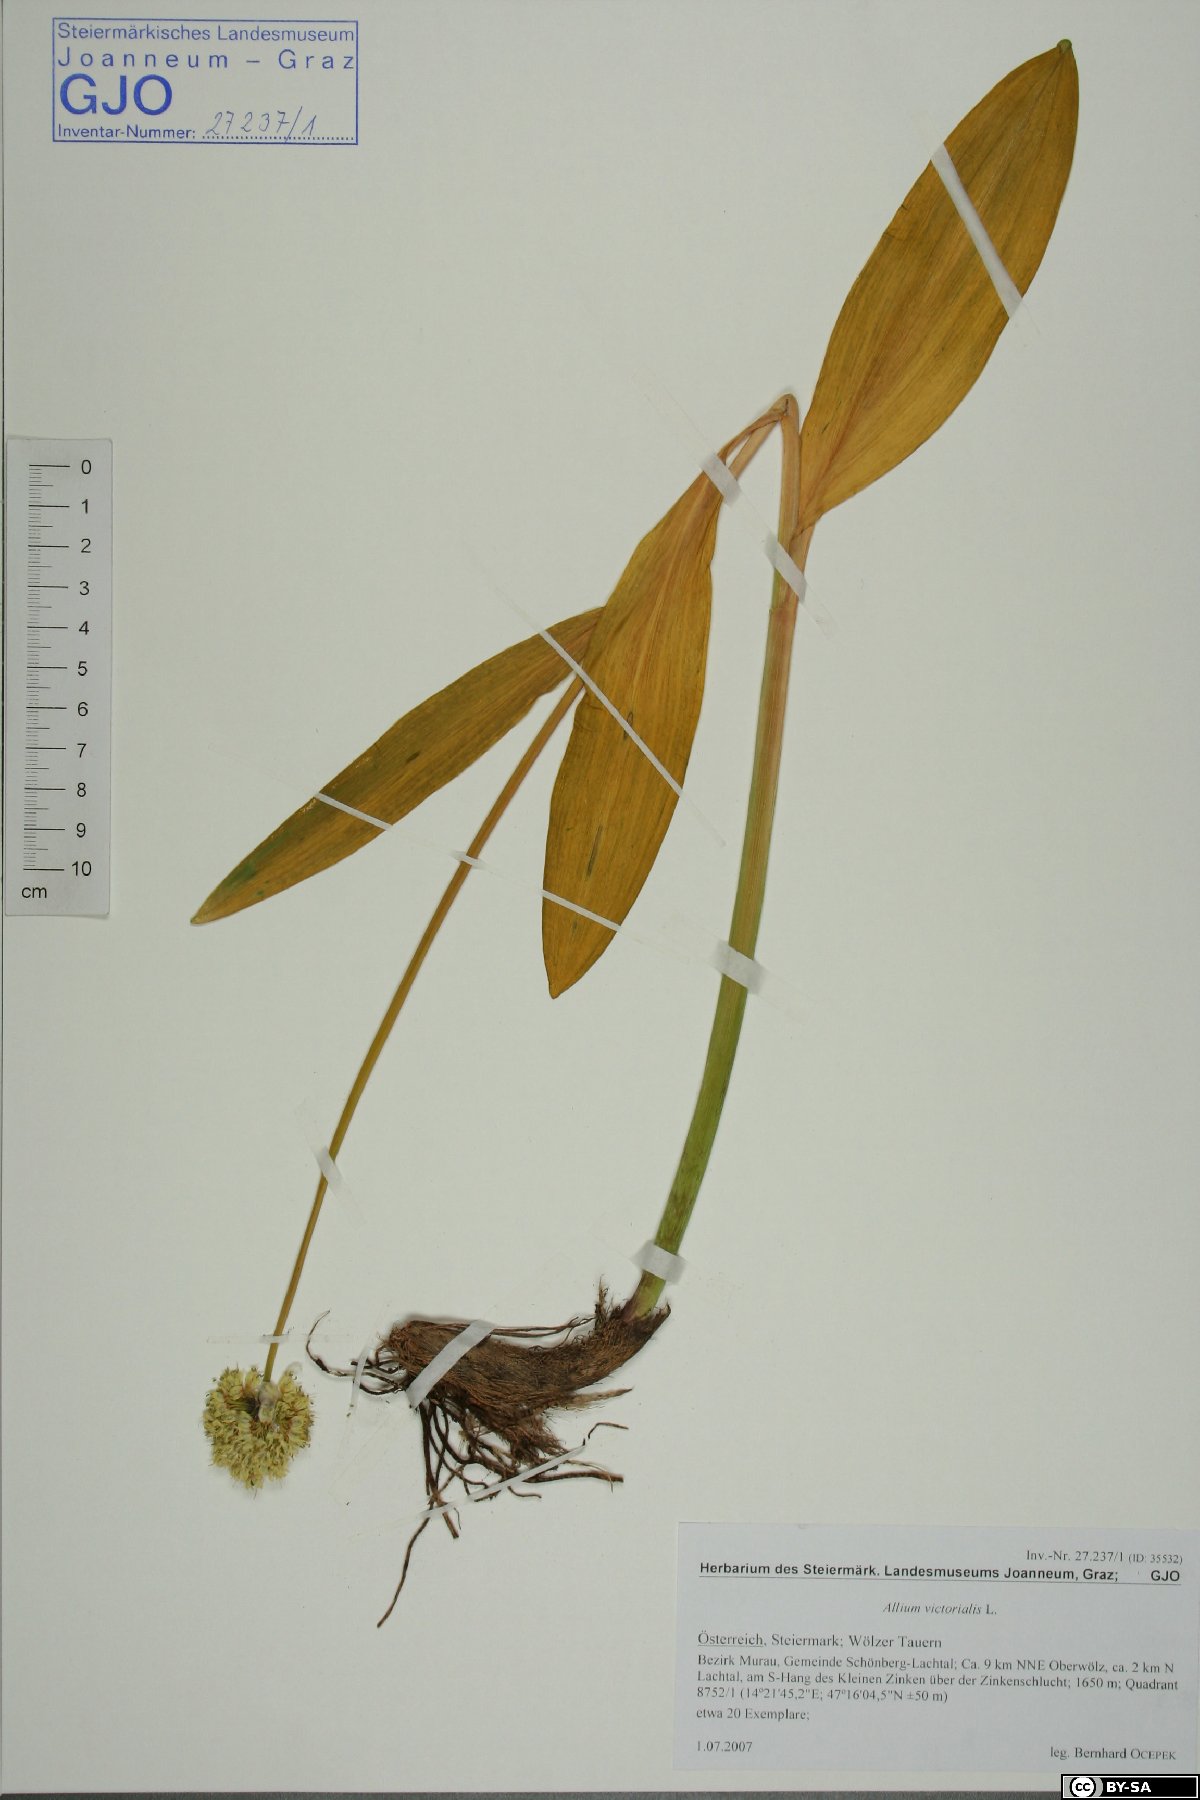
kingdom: Plantae
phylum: Tracheophyta
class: Liliopsida
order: Asparagales
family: Amaryllidaceae
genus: Allium
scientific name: Allium victorialis
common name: Alpine leek
